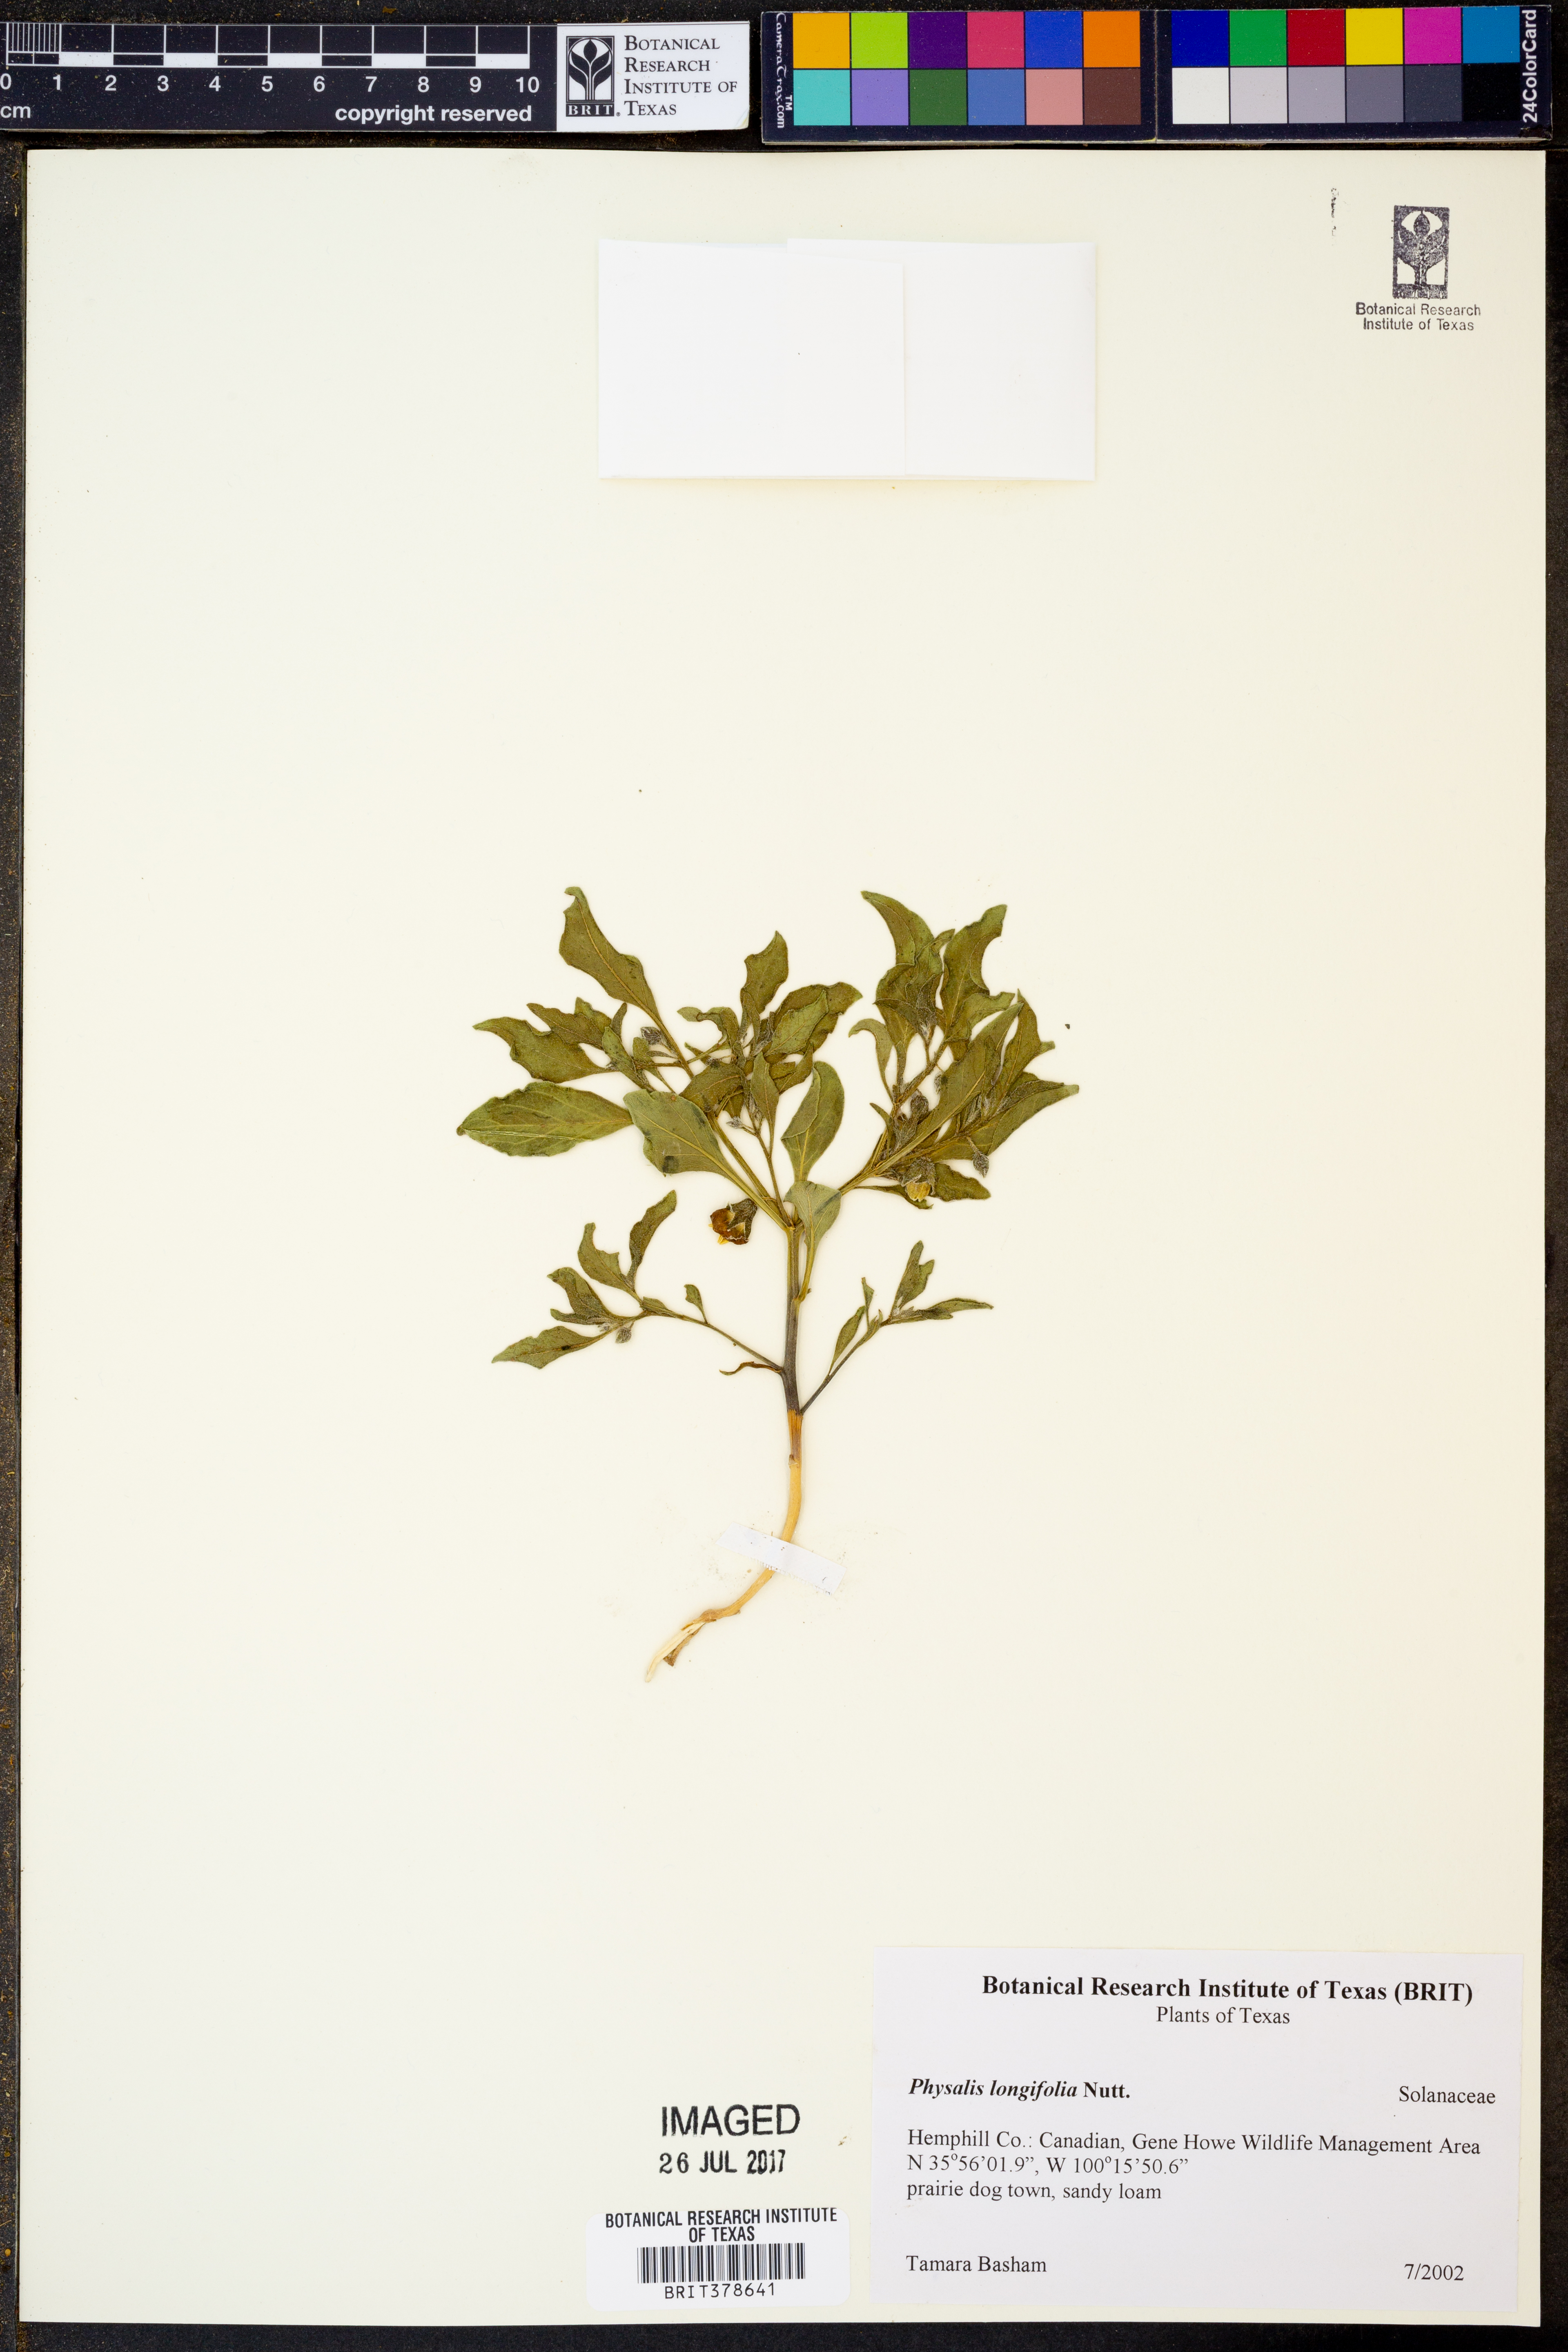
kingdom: Plantae
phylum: Tracheophyta
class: Magnoliopsida
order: Solanales
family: Solanaceae
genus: Physalis
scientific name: Physalis longifolia
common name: Common ground-cherry
